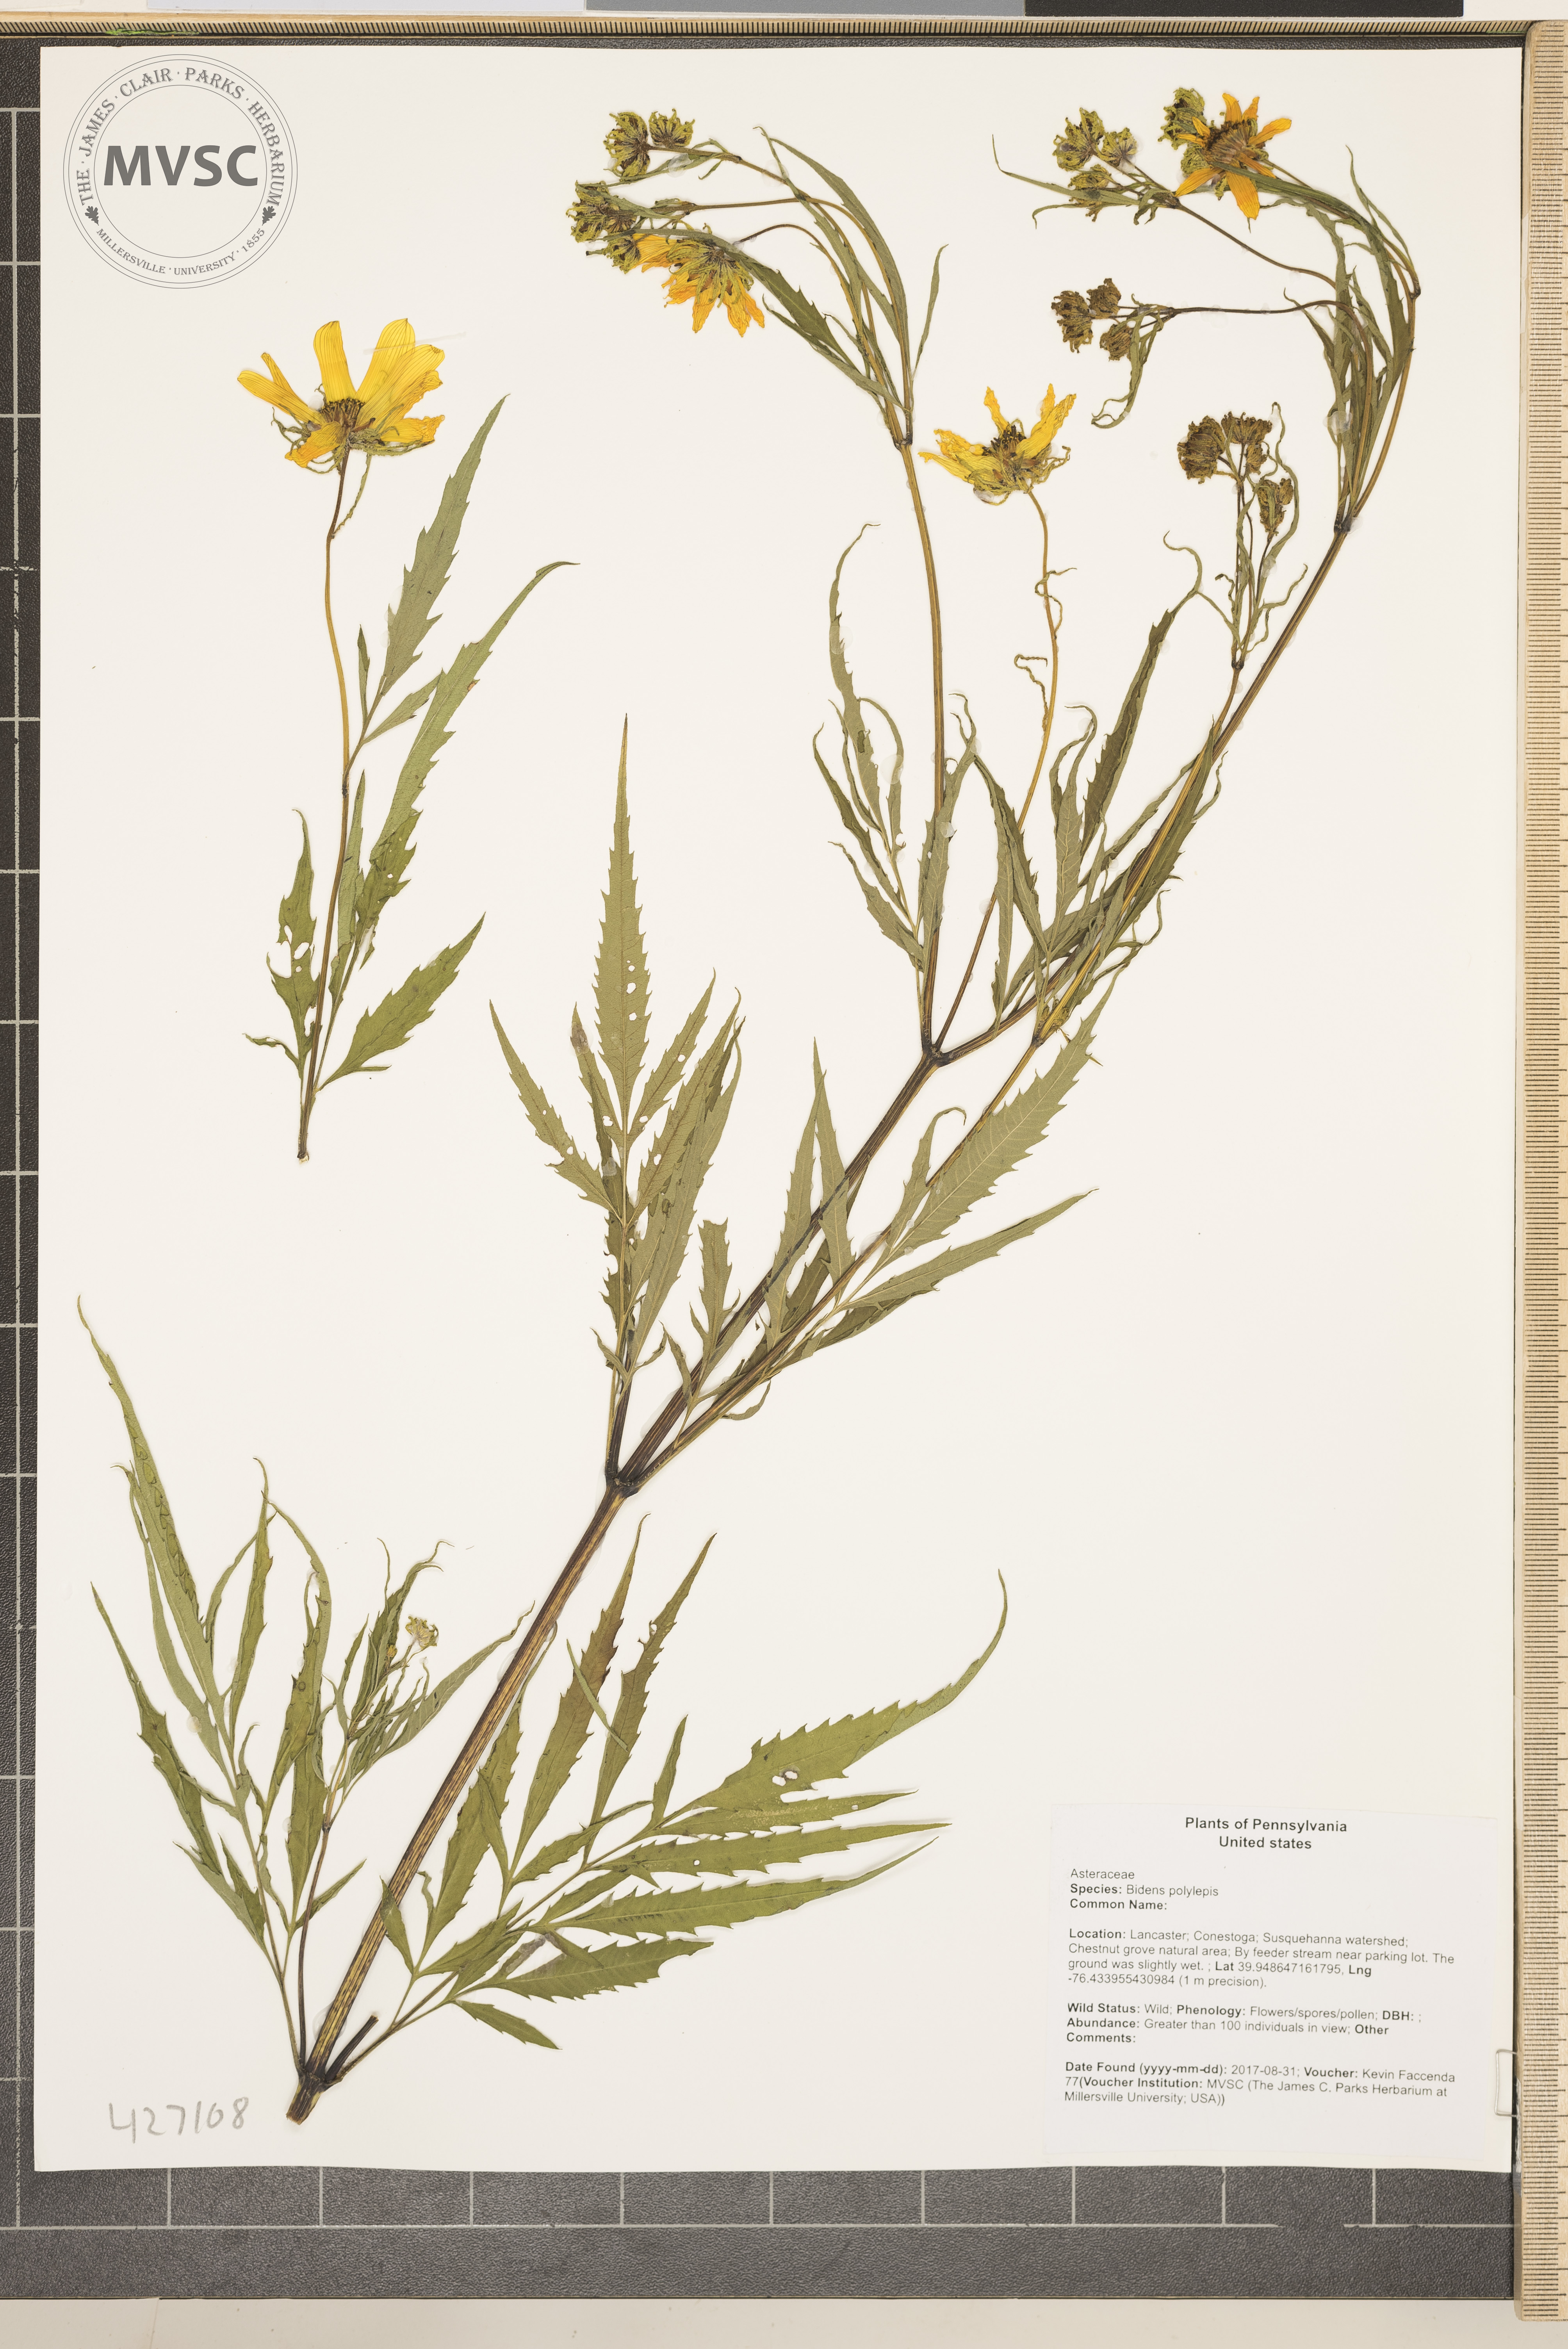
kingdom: Plantae
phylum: Tracheophyta
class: Magnoliopsida
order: Asterales
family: Asteraceae
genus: Bidens
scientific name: Bidens polylepis
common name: Awnless beggarticks
